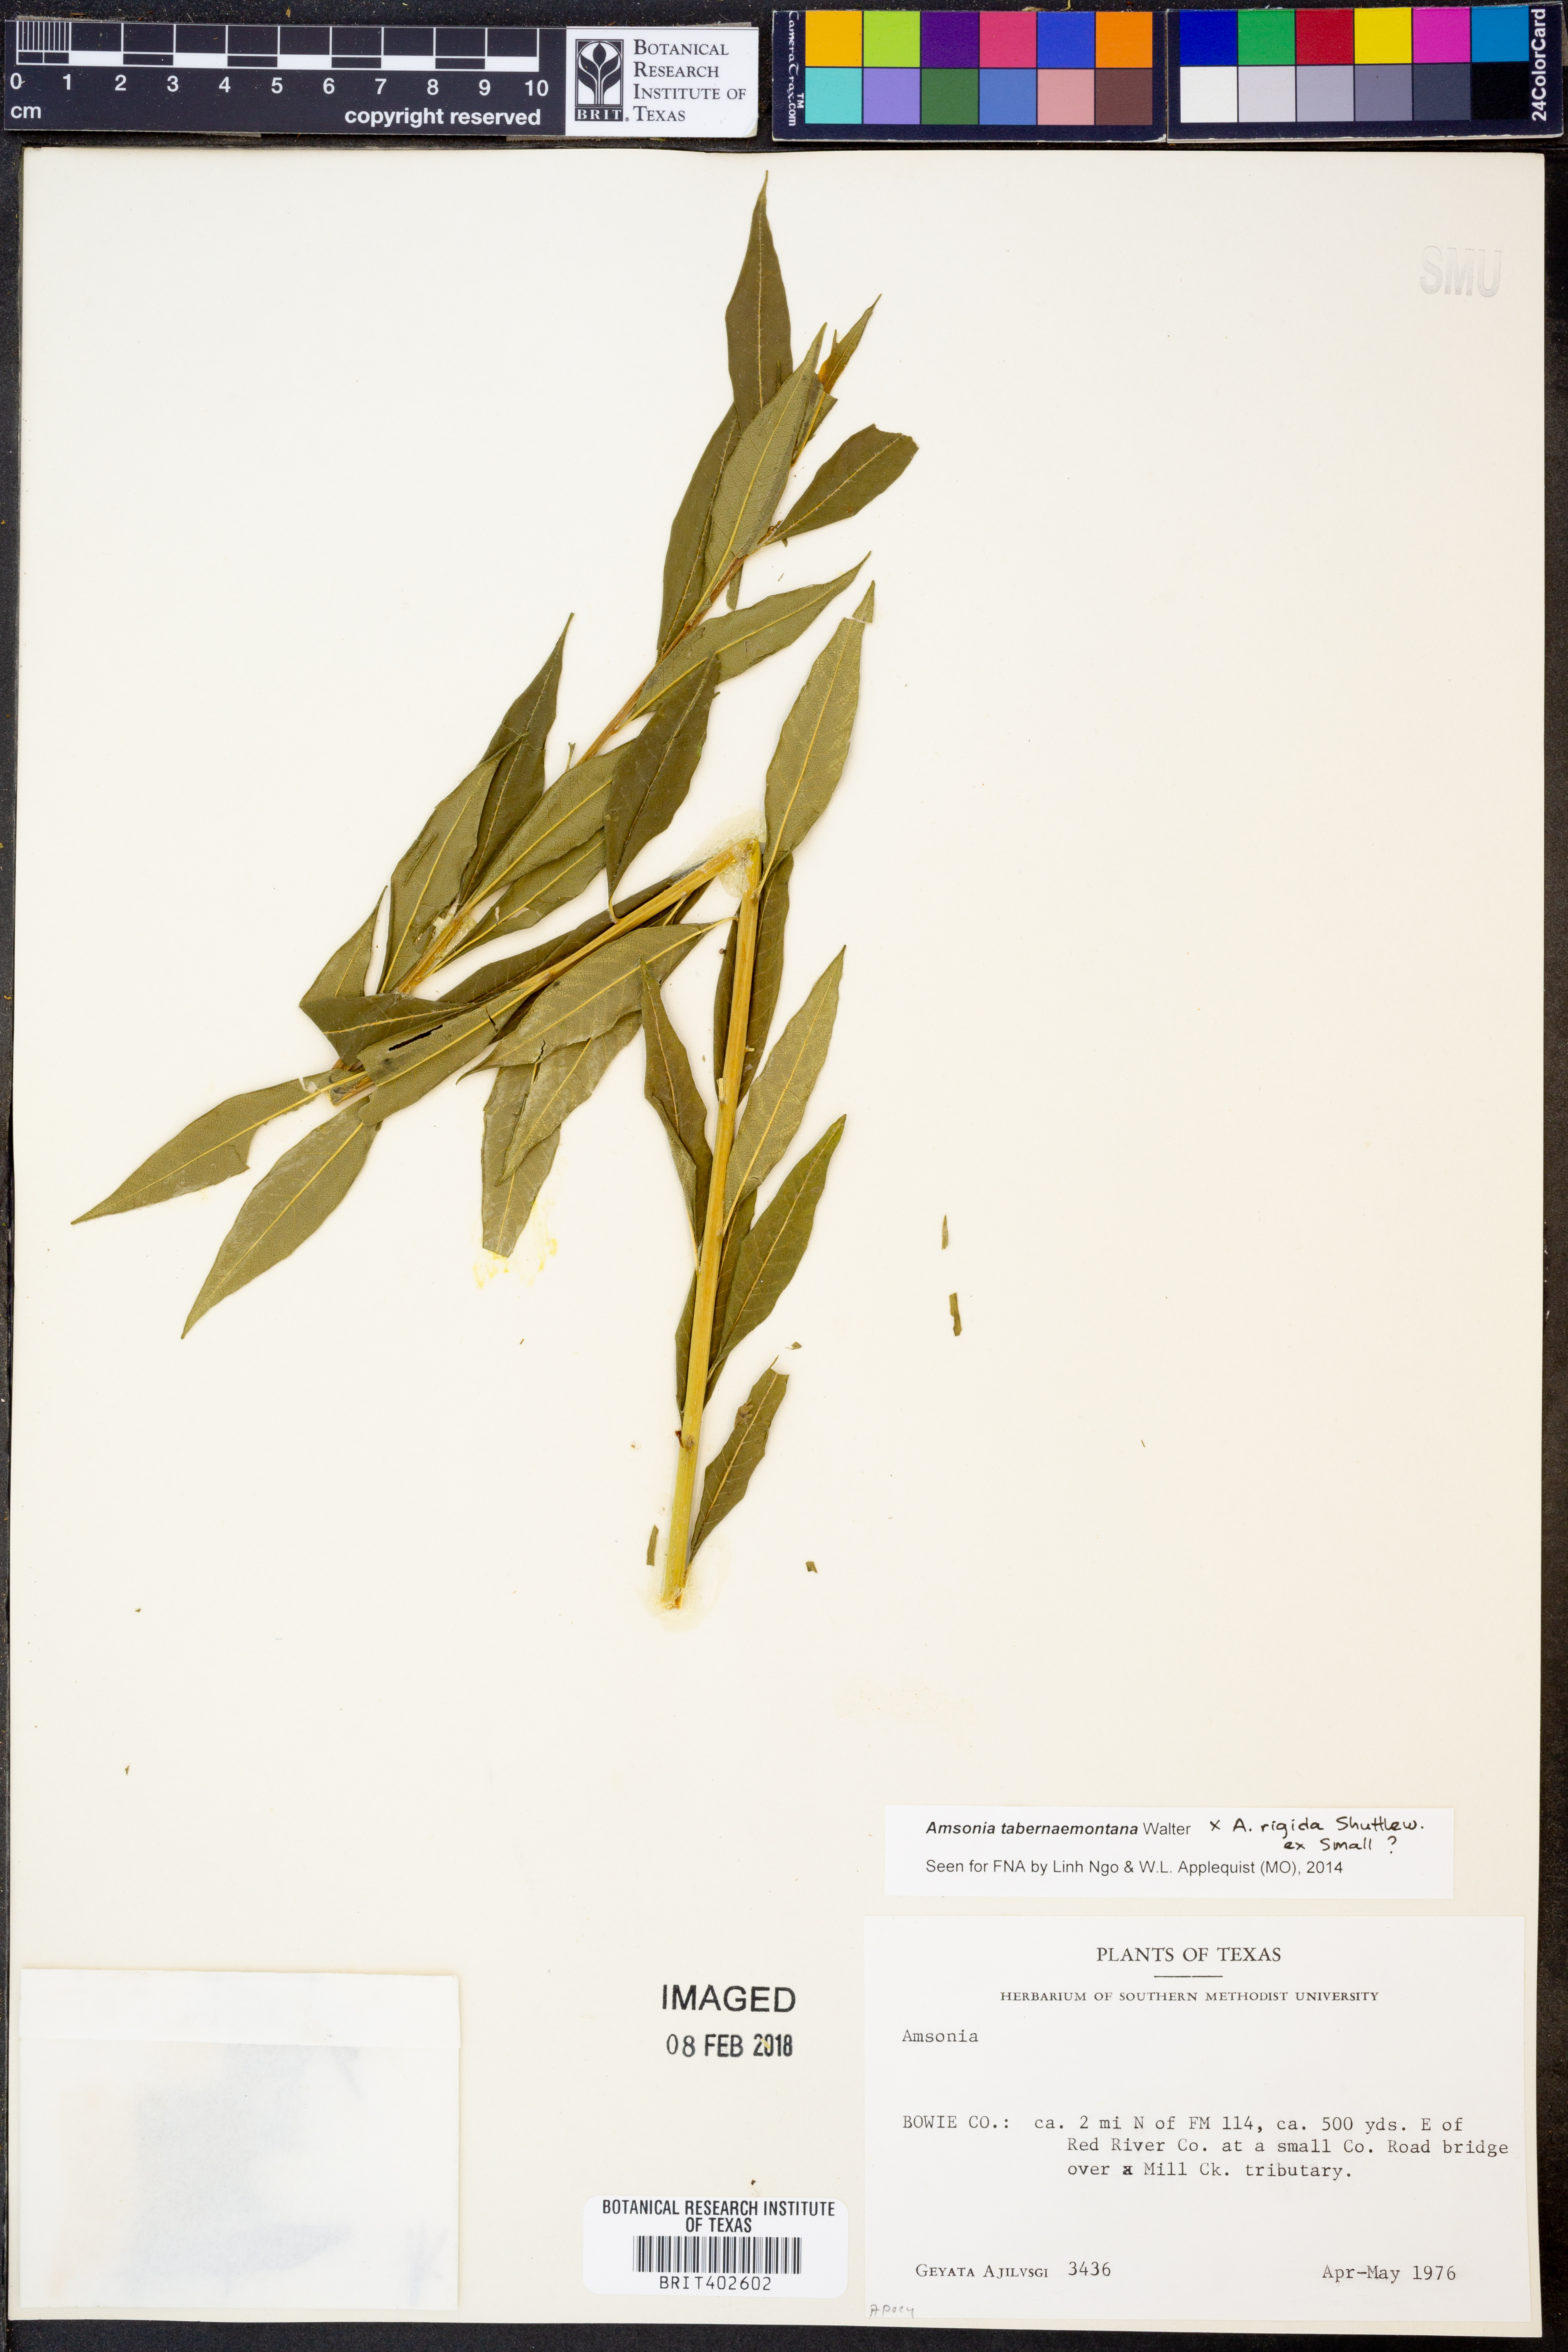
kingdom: Plantae
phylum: Tracheophyta
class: Magnoliopsida
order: Gentianales
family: Apocynaceae
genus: Amsonia
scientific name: Amsonia tabernaemontana
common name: Texas-star
